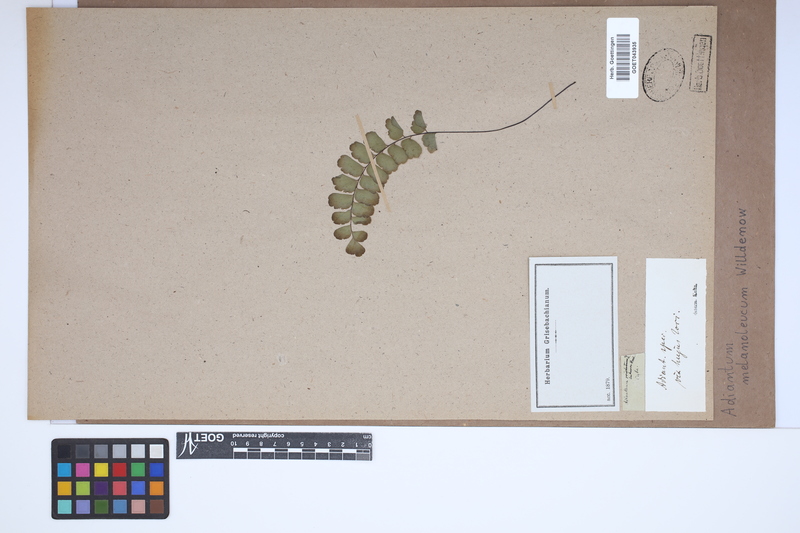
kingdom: Plantae
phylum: Tracheophyta
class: Polypodiopsida
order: Polypodiales
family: Pteridaceae
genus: Adiantum
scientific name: Adiantum melanoleucum
